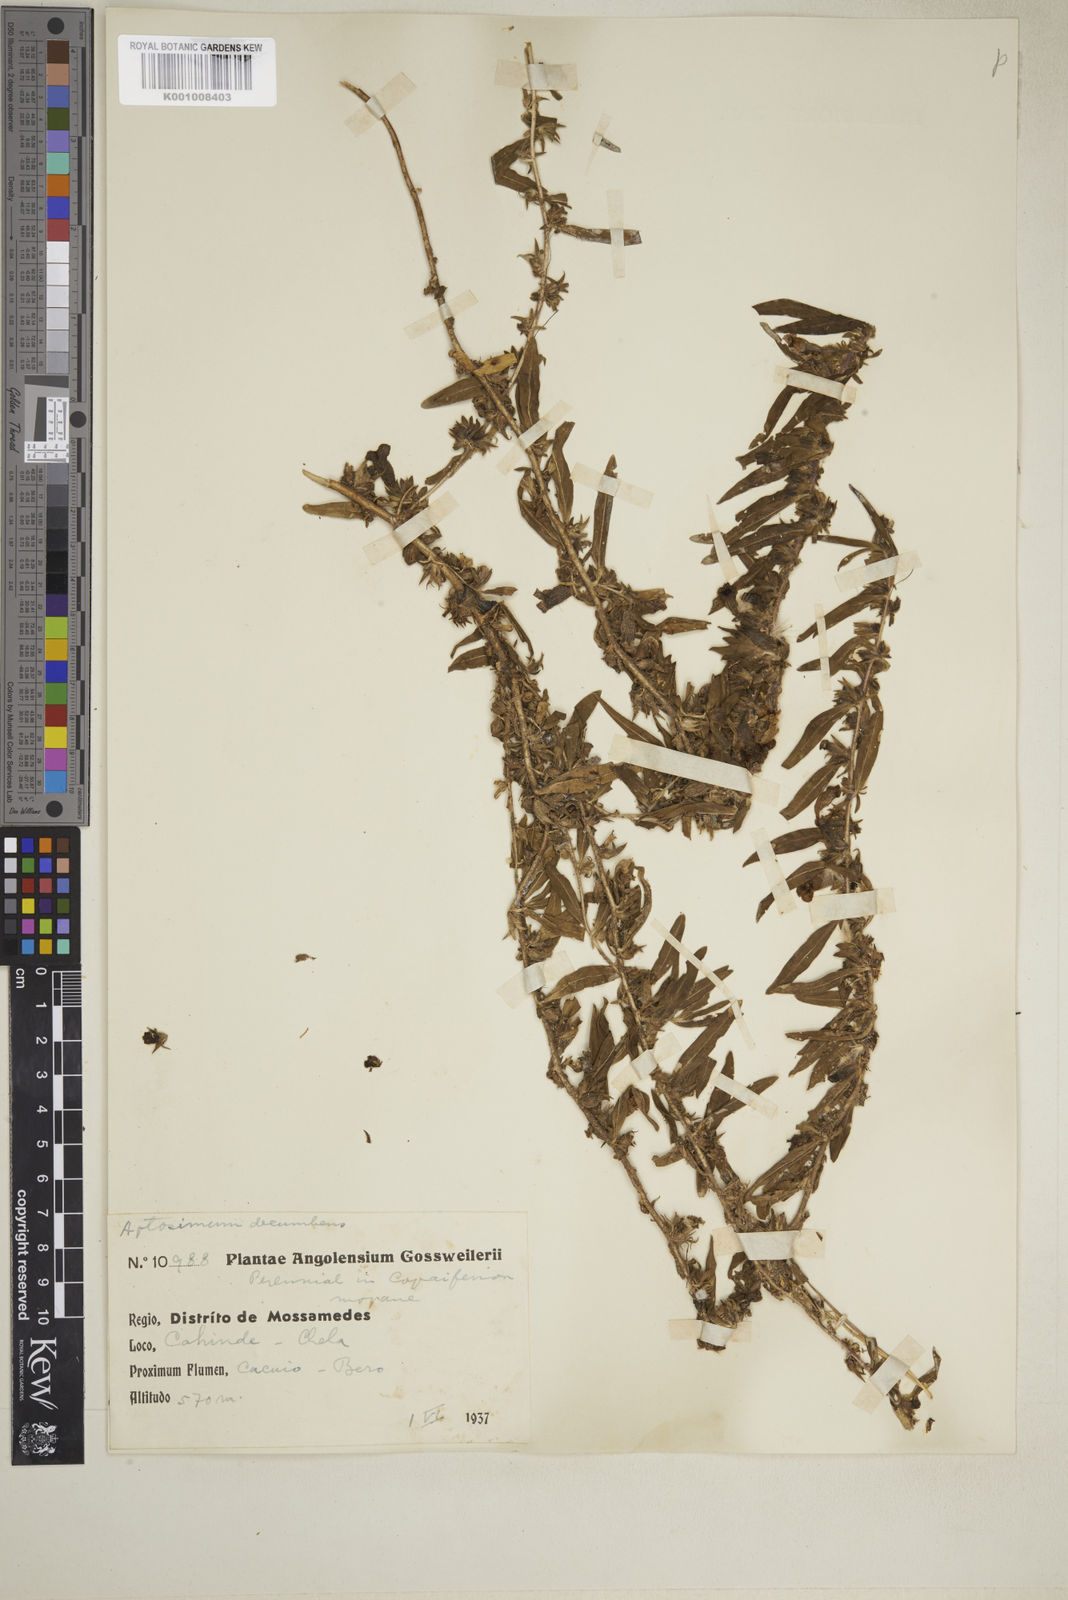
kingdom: Plantae
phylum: Tracheophyta
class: Magnoliopsida
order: Lamiales
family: Scrophulariaceae
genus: Aptosimum
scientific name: Aptosimum decumbens
